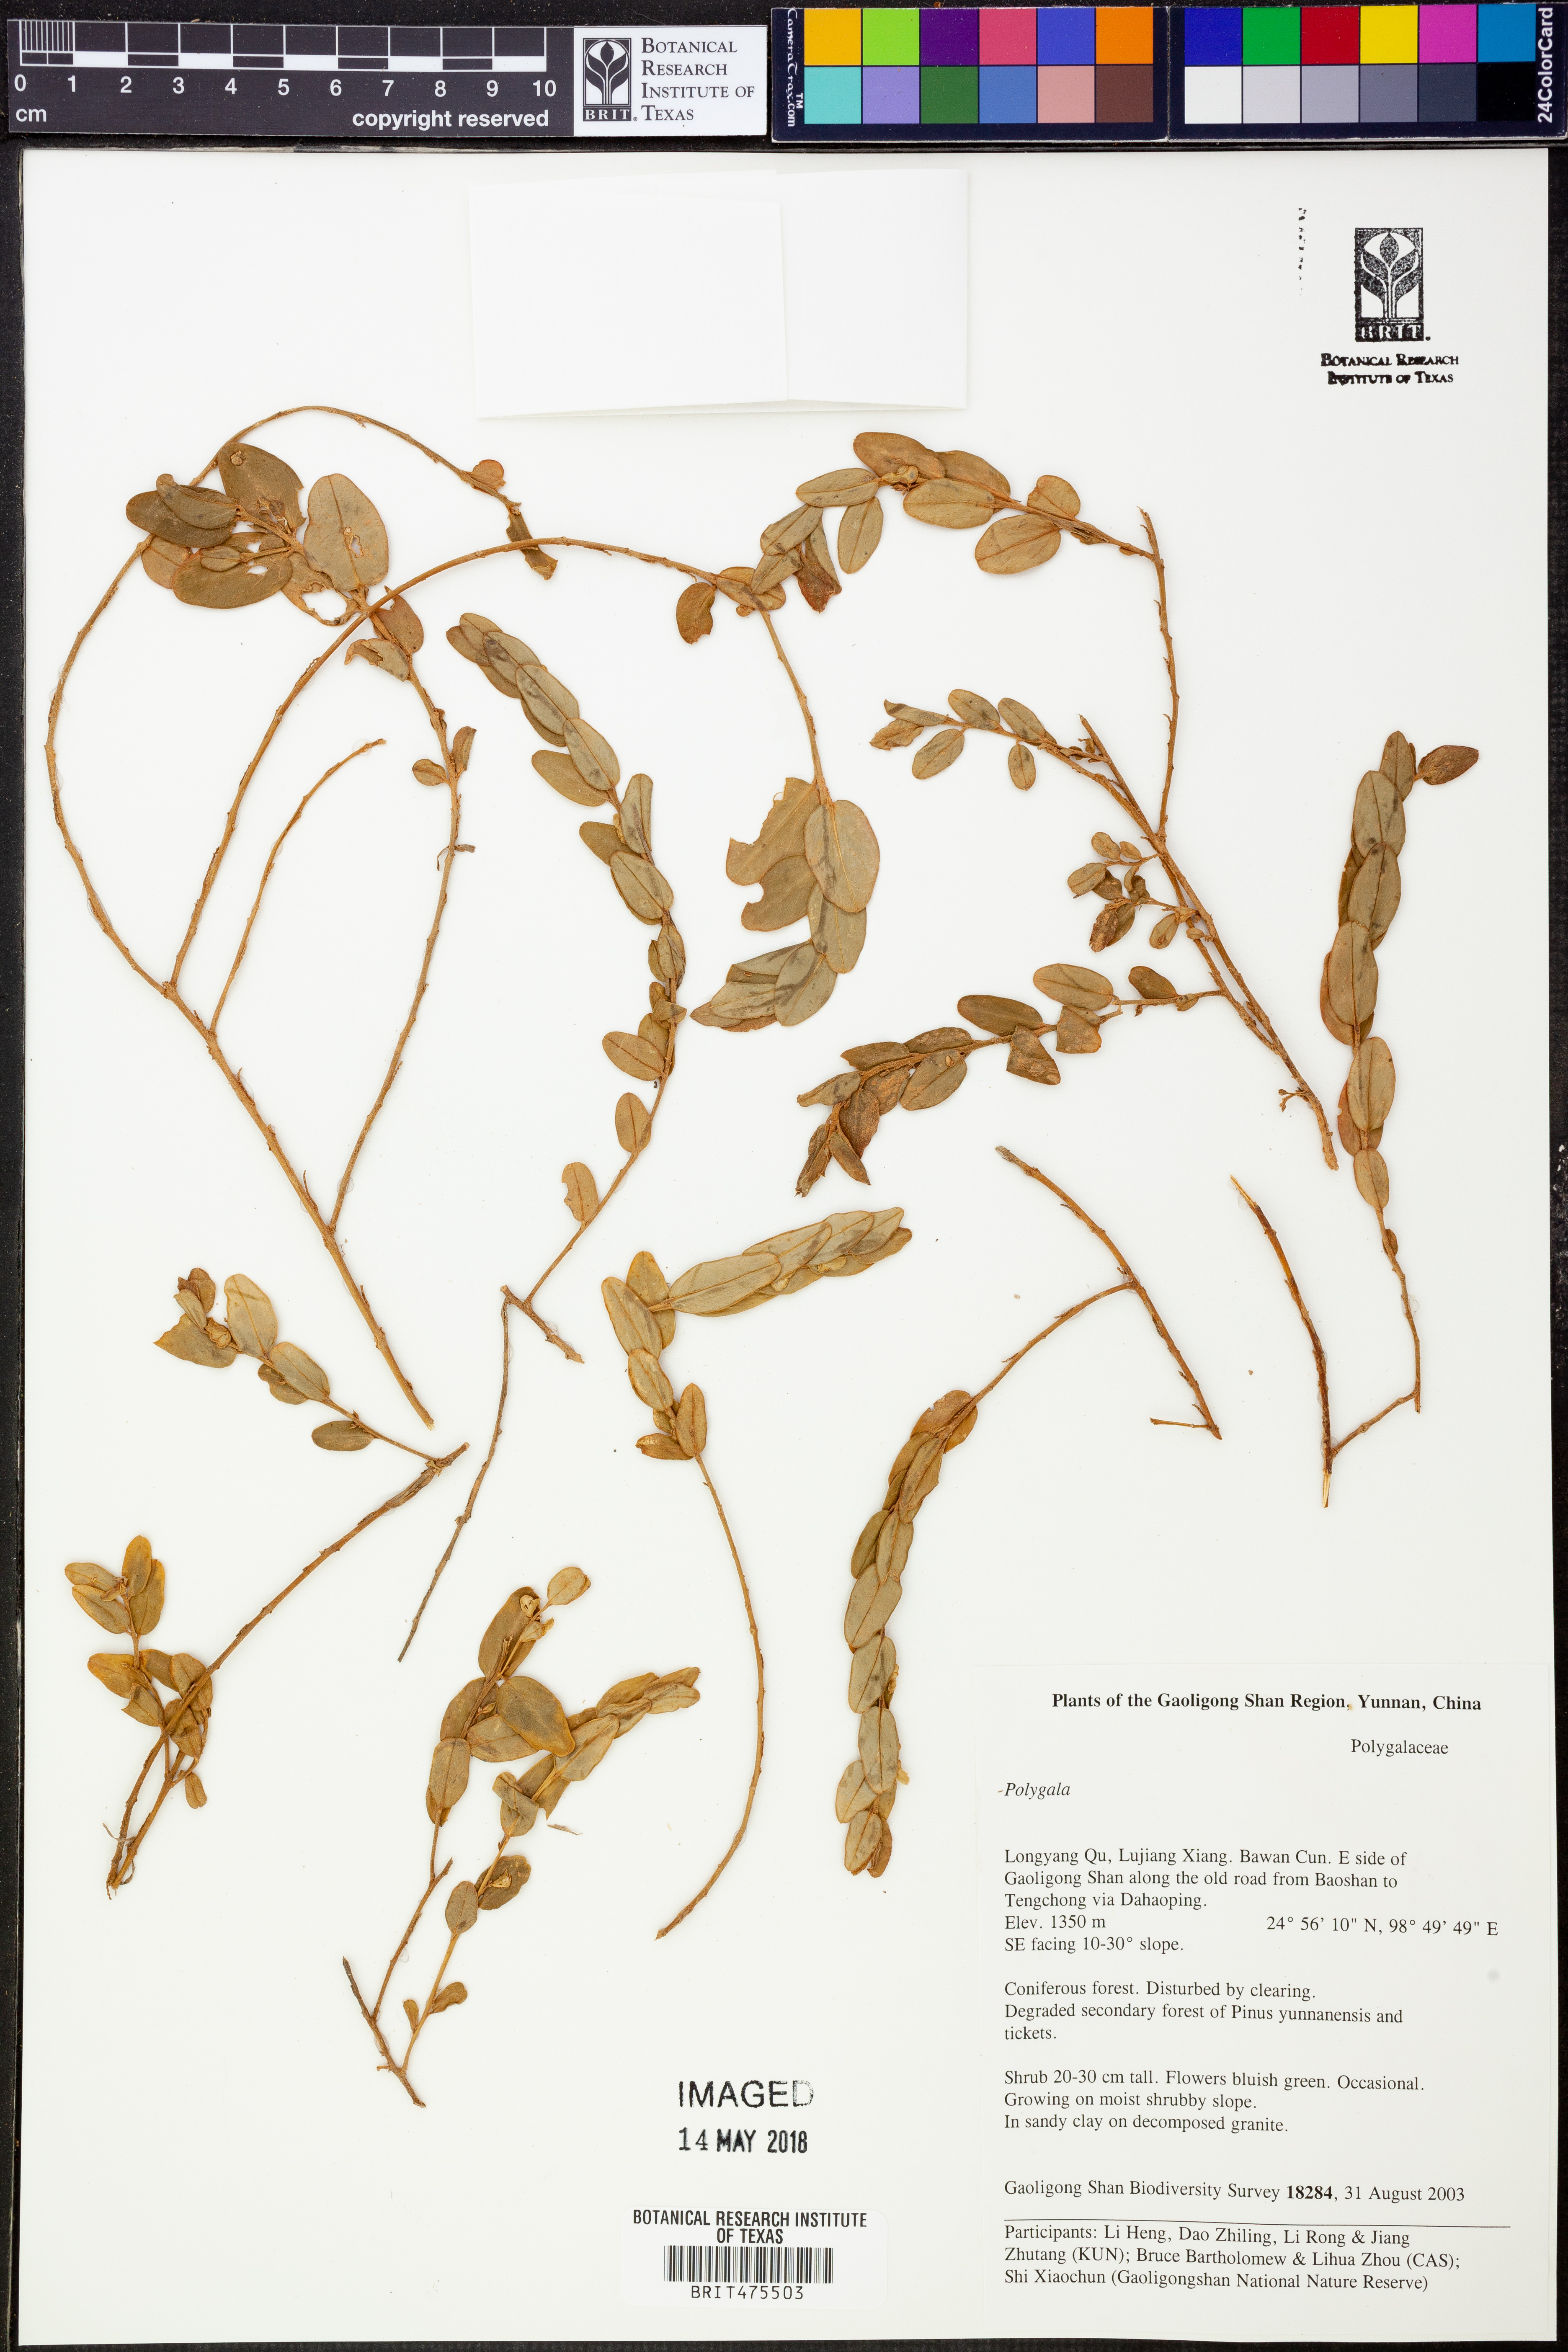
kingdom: Plantae
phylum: Tracheophyta
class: Magnoliopsida
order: Fabales
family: Fabaceae
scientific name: Fabaceae
